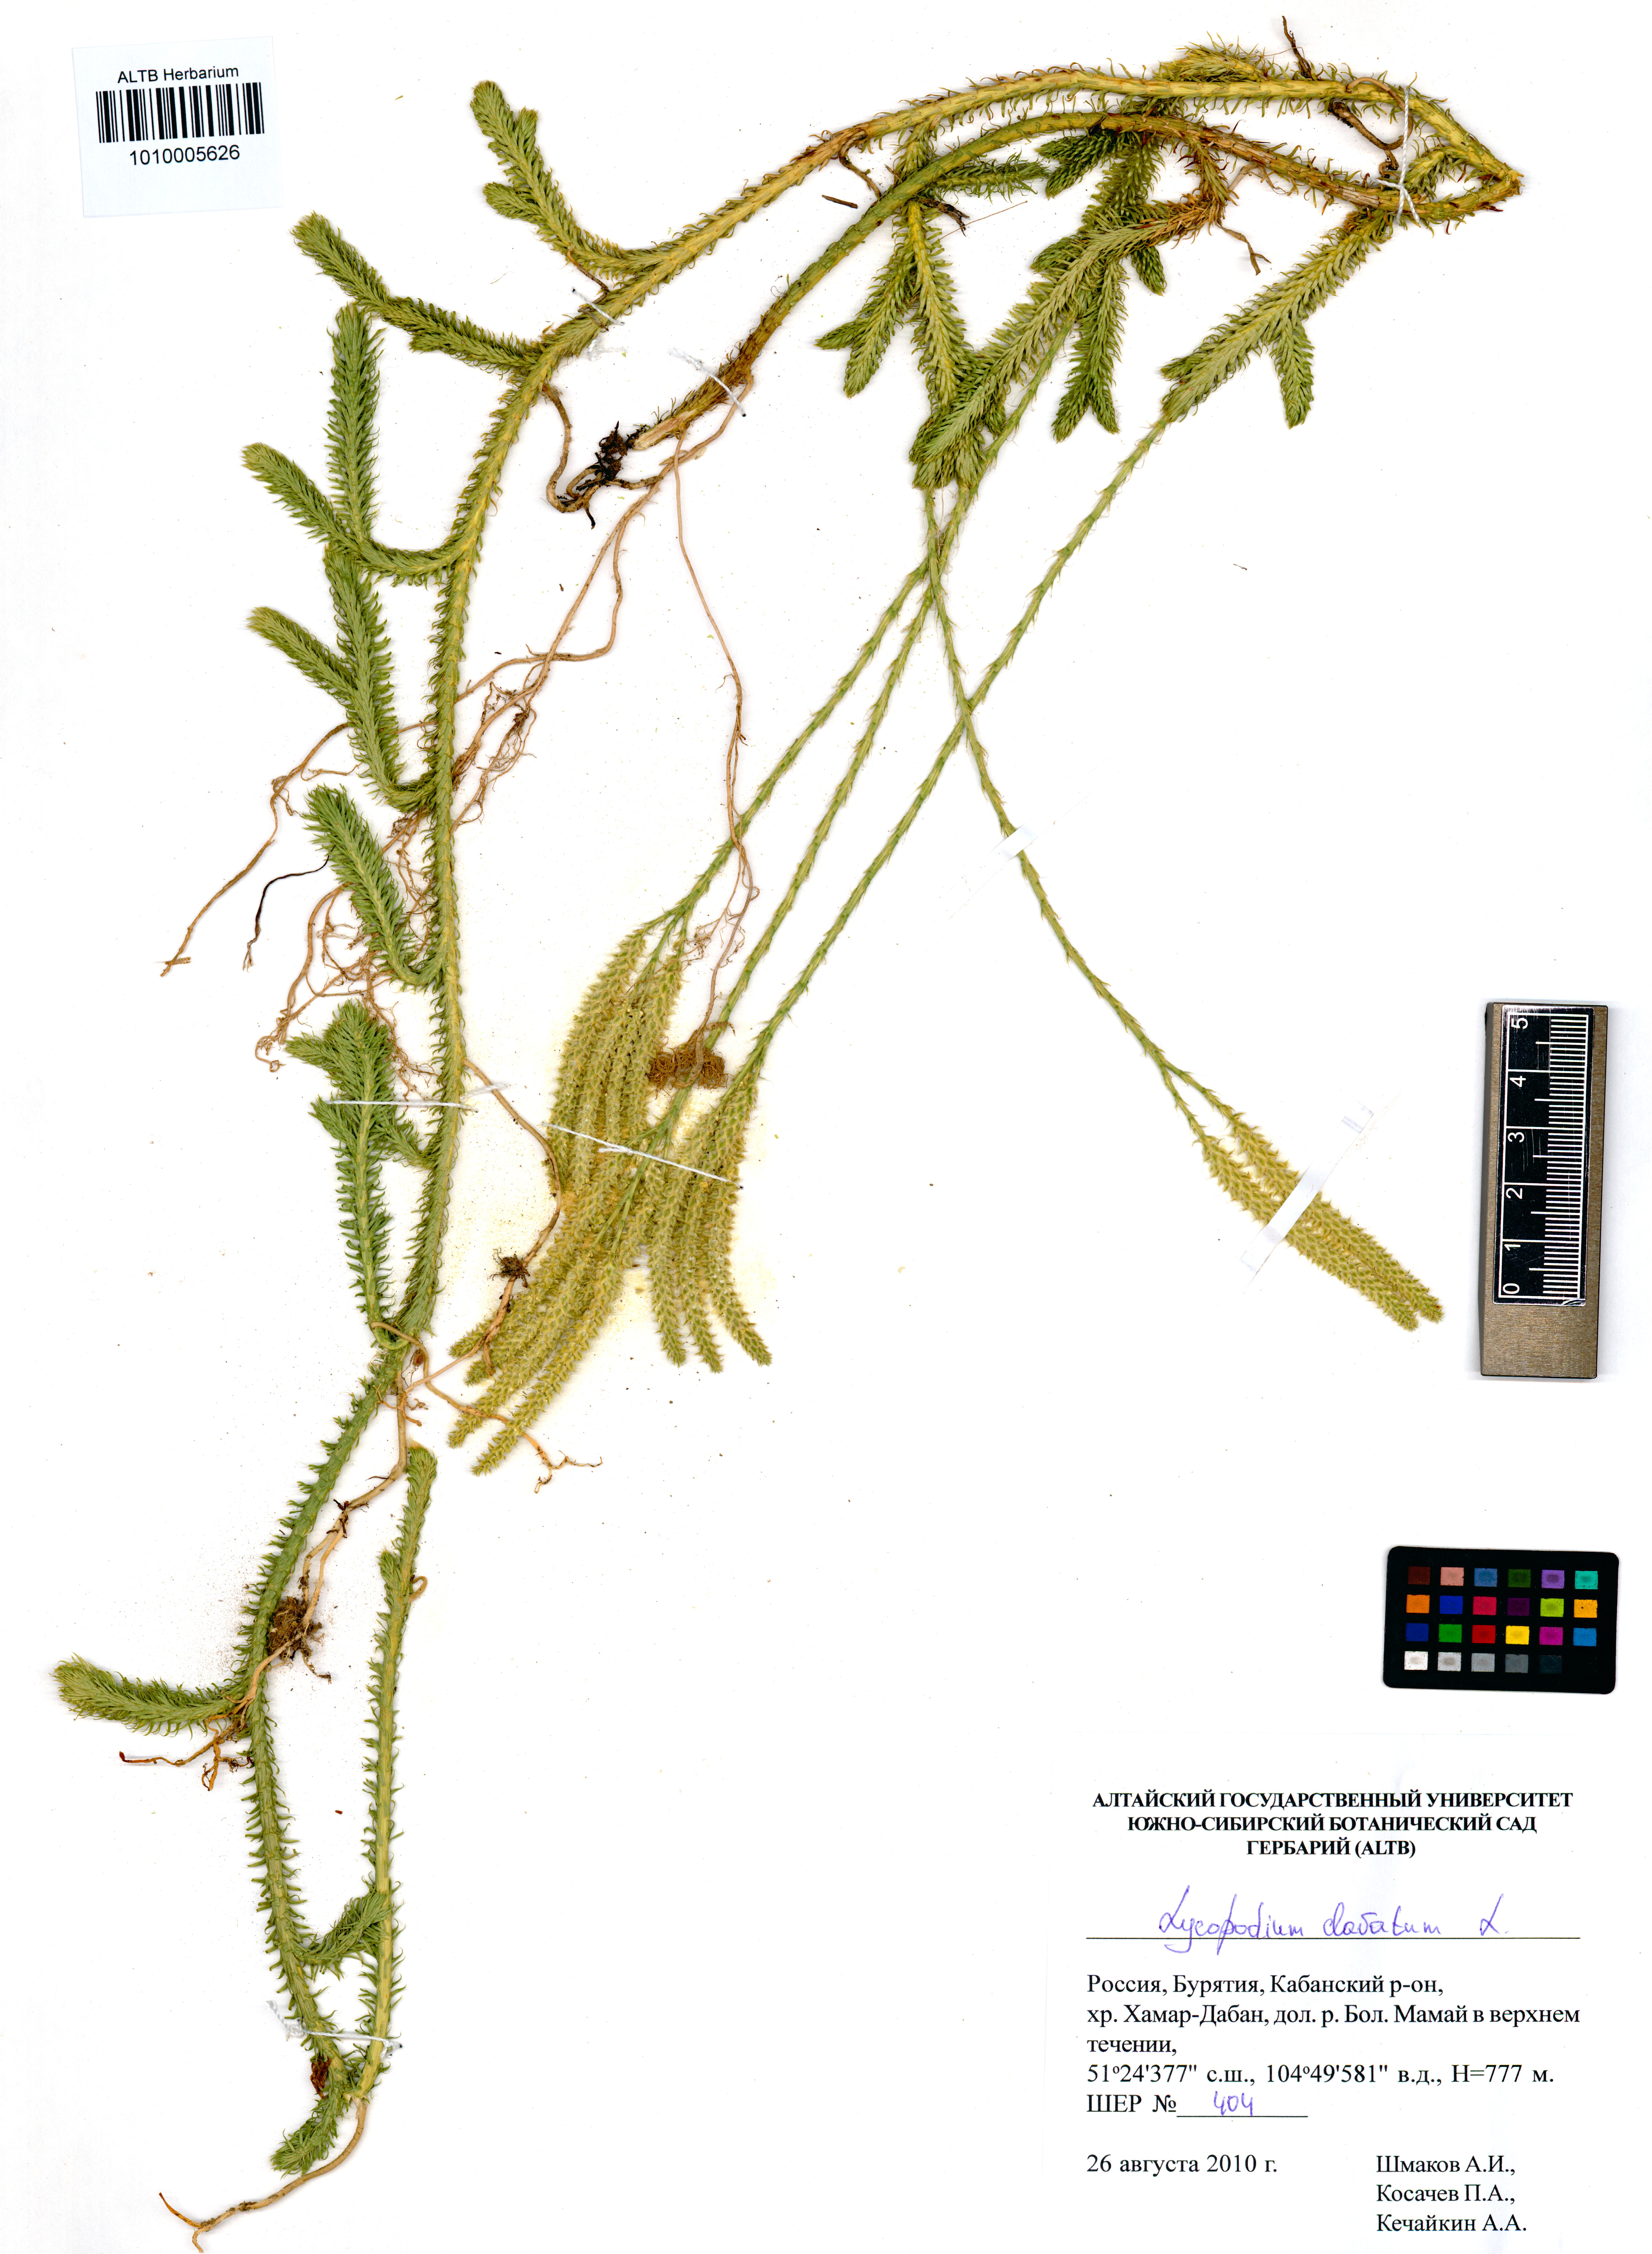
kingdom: Plantae
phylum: Tracheophyta
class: Lycopodiopsida
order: Lycopodiales
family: Lycopodiaceae
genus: Lycopodium
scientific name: Lycopodium clavatum
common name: Stag's-horn clubmoss
